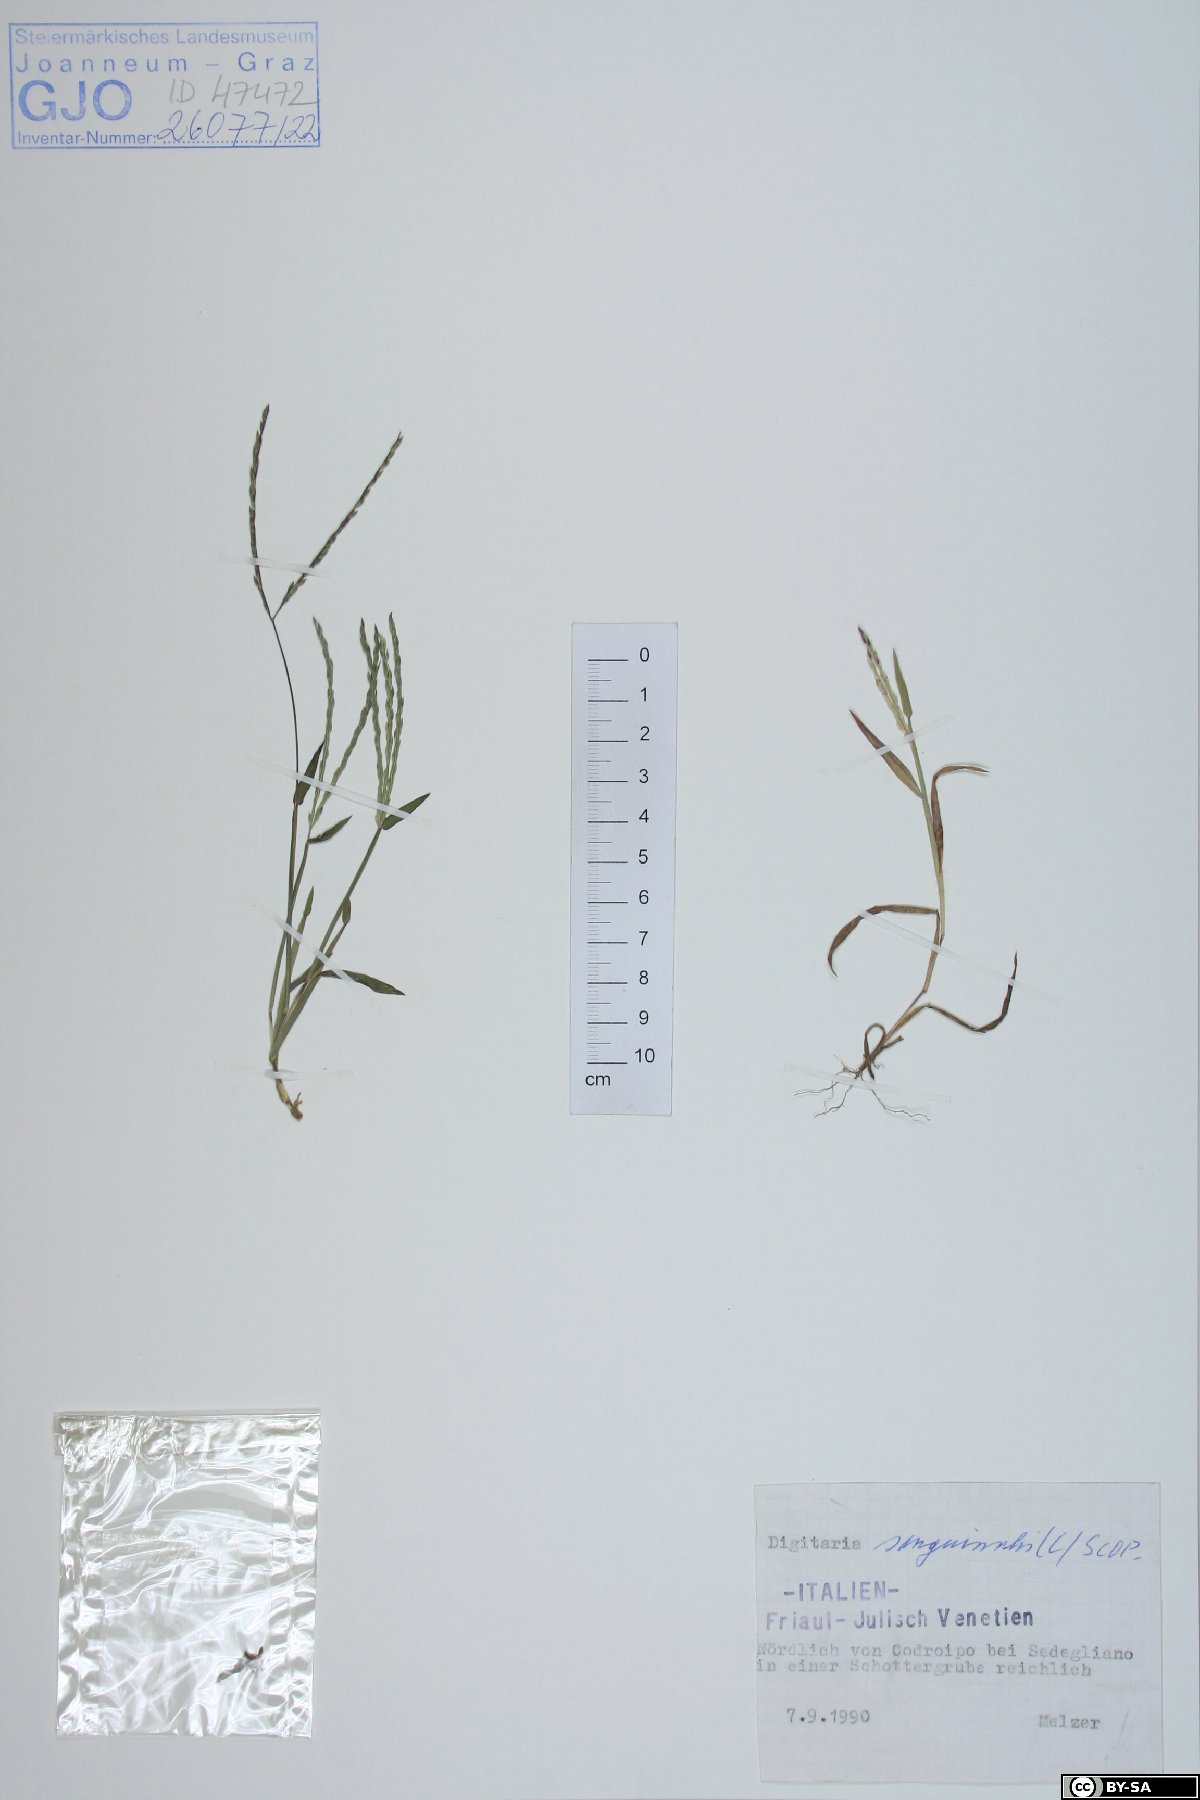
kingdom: Plantae
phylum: Tracheophyta
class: Liliopsida
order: Poales
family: Poaceae
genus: Digitaria
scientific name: Digitaria sanguinalis
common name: Hairy crabgrass
